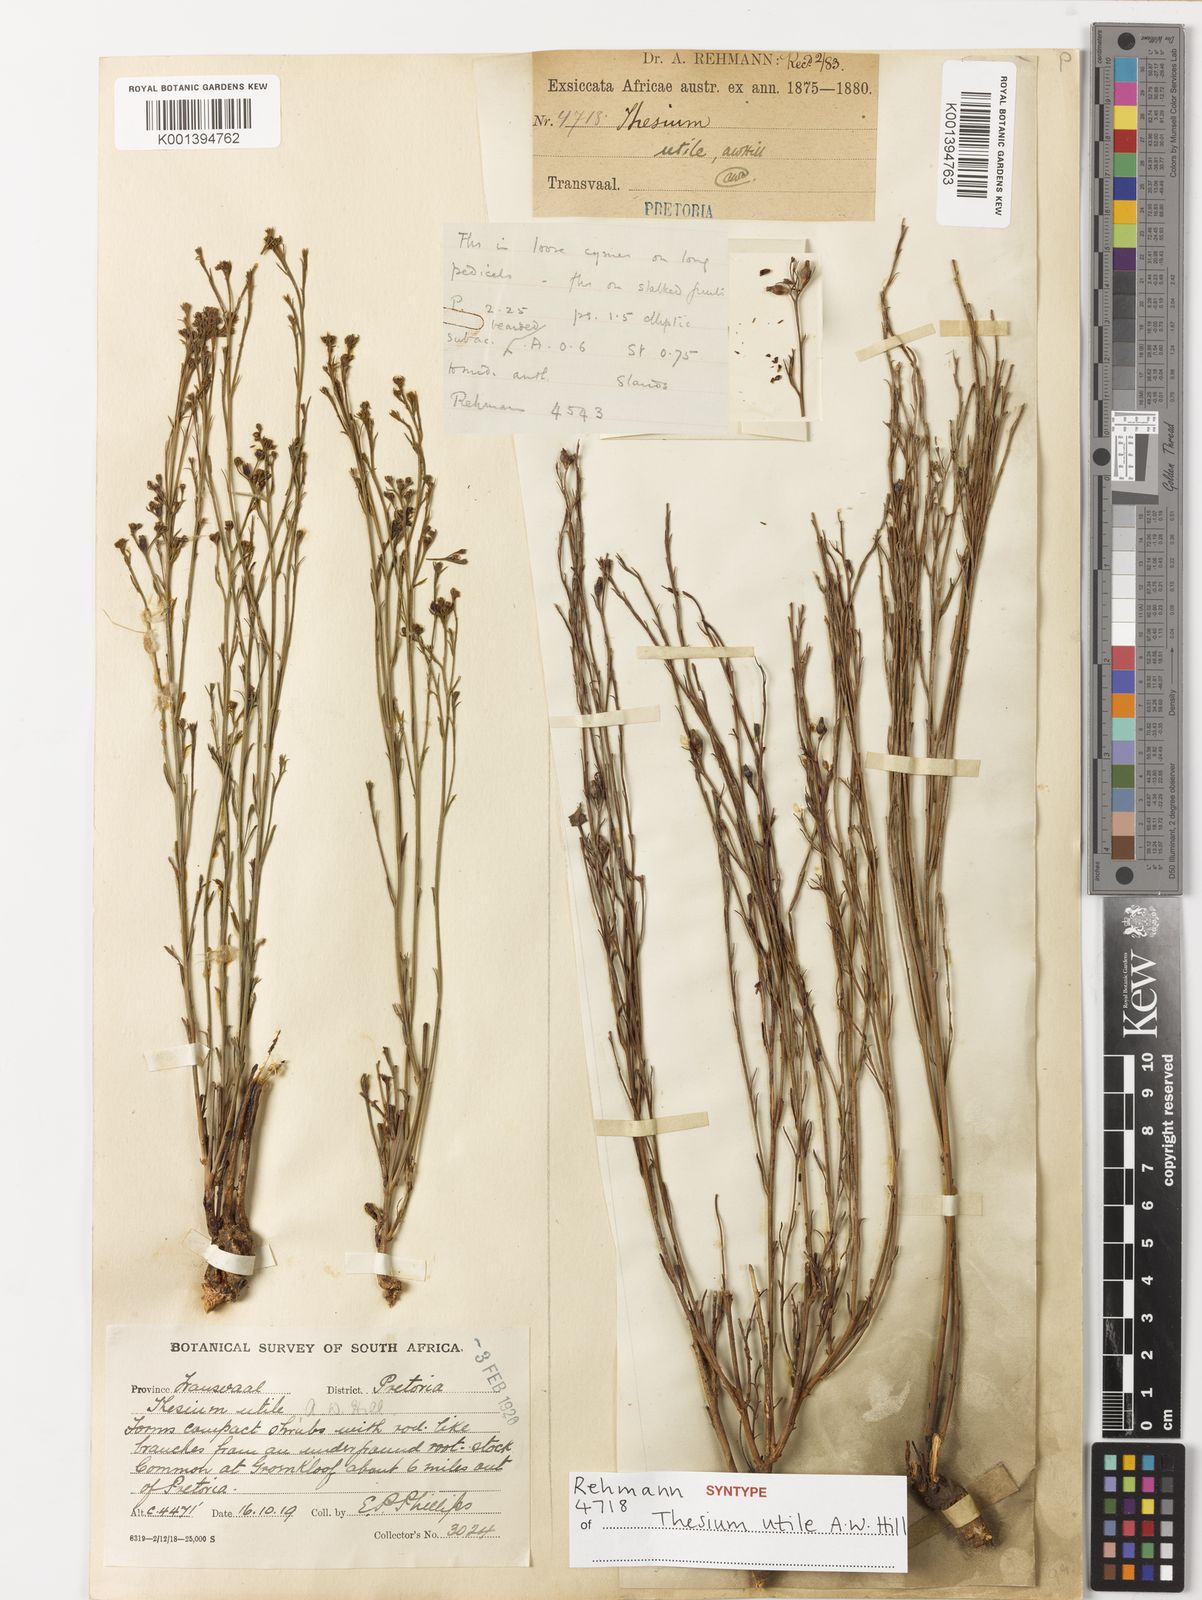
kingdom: Plantae
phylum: Tracheophyta
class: Magnoliopsida
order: Santalales
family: Thesiaceae
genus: Thesium
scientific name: Thesium utile
